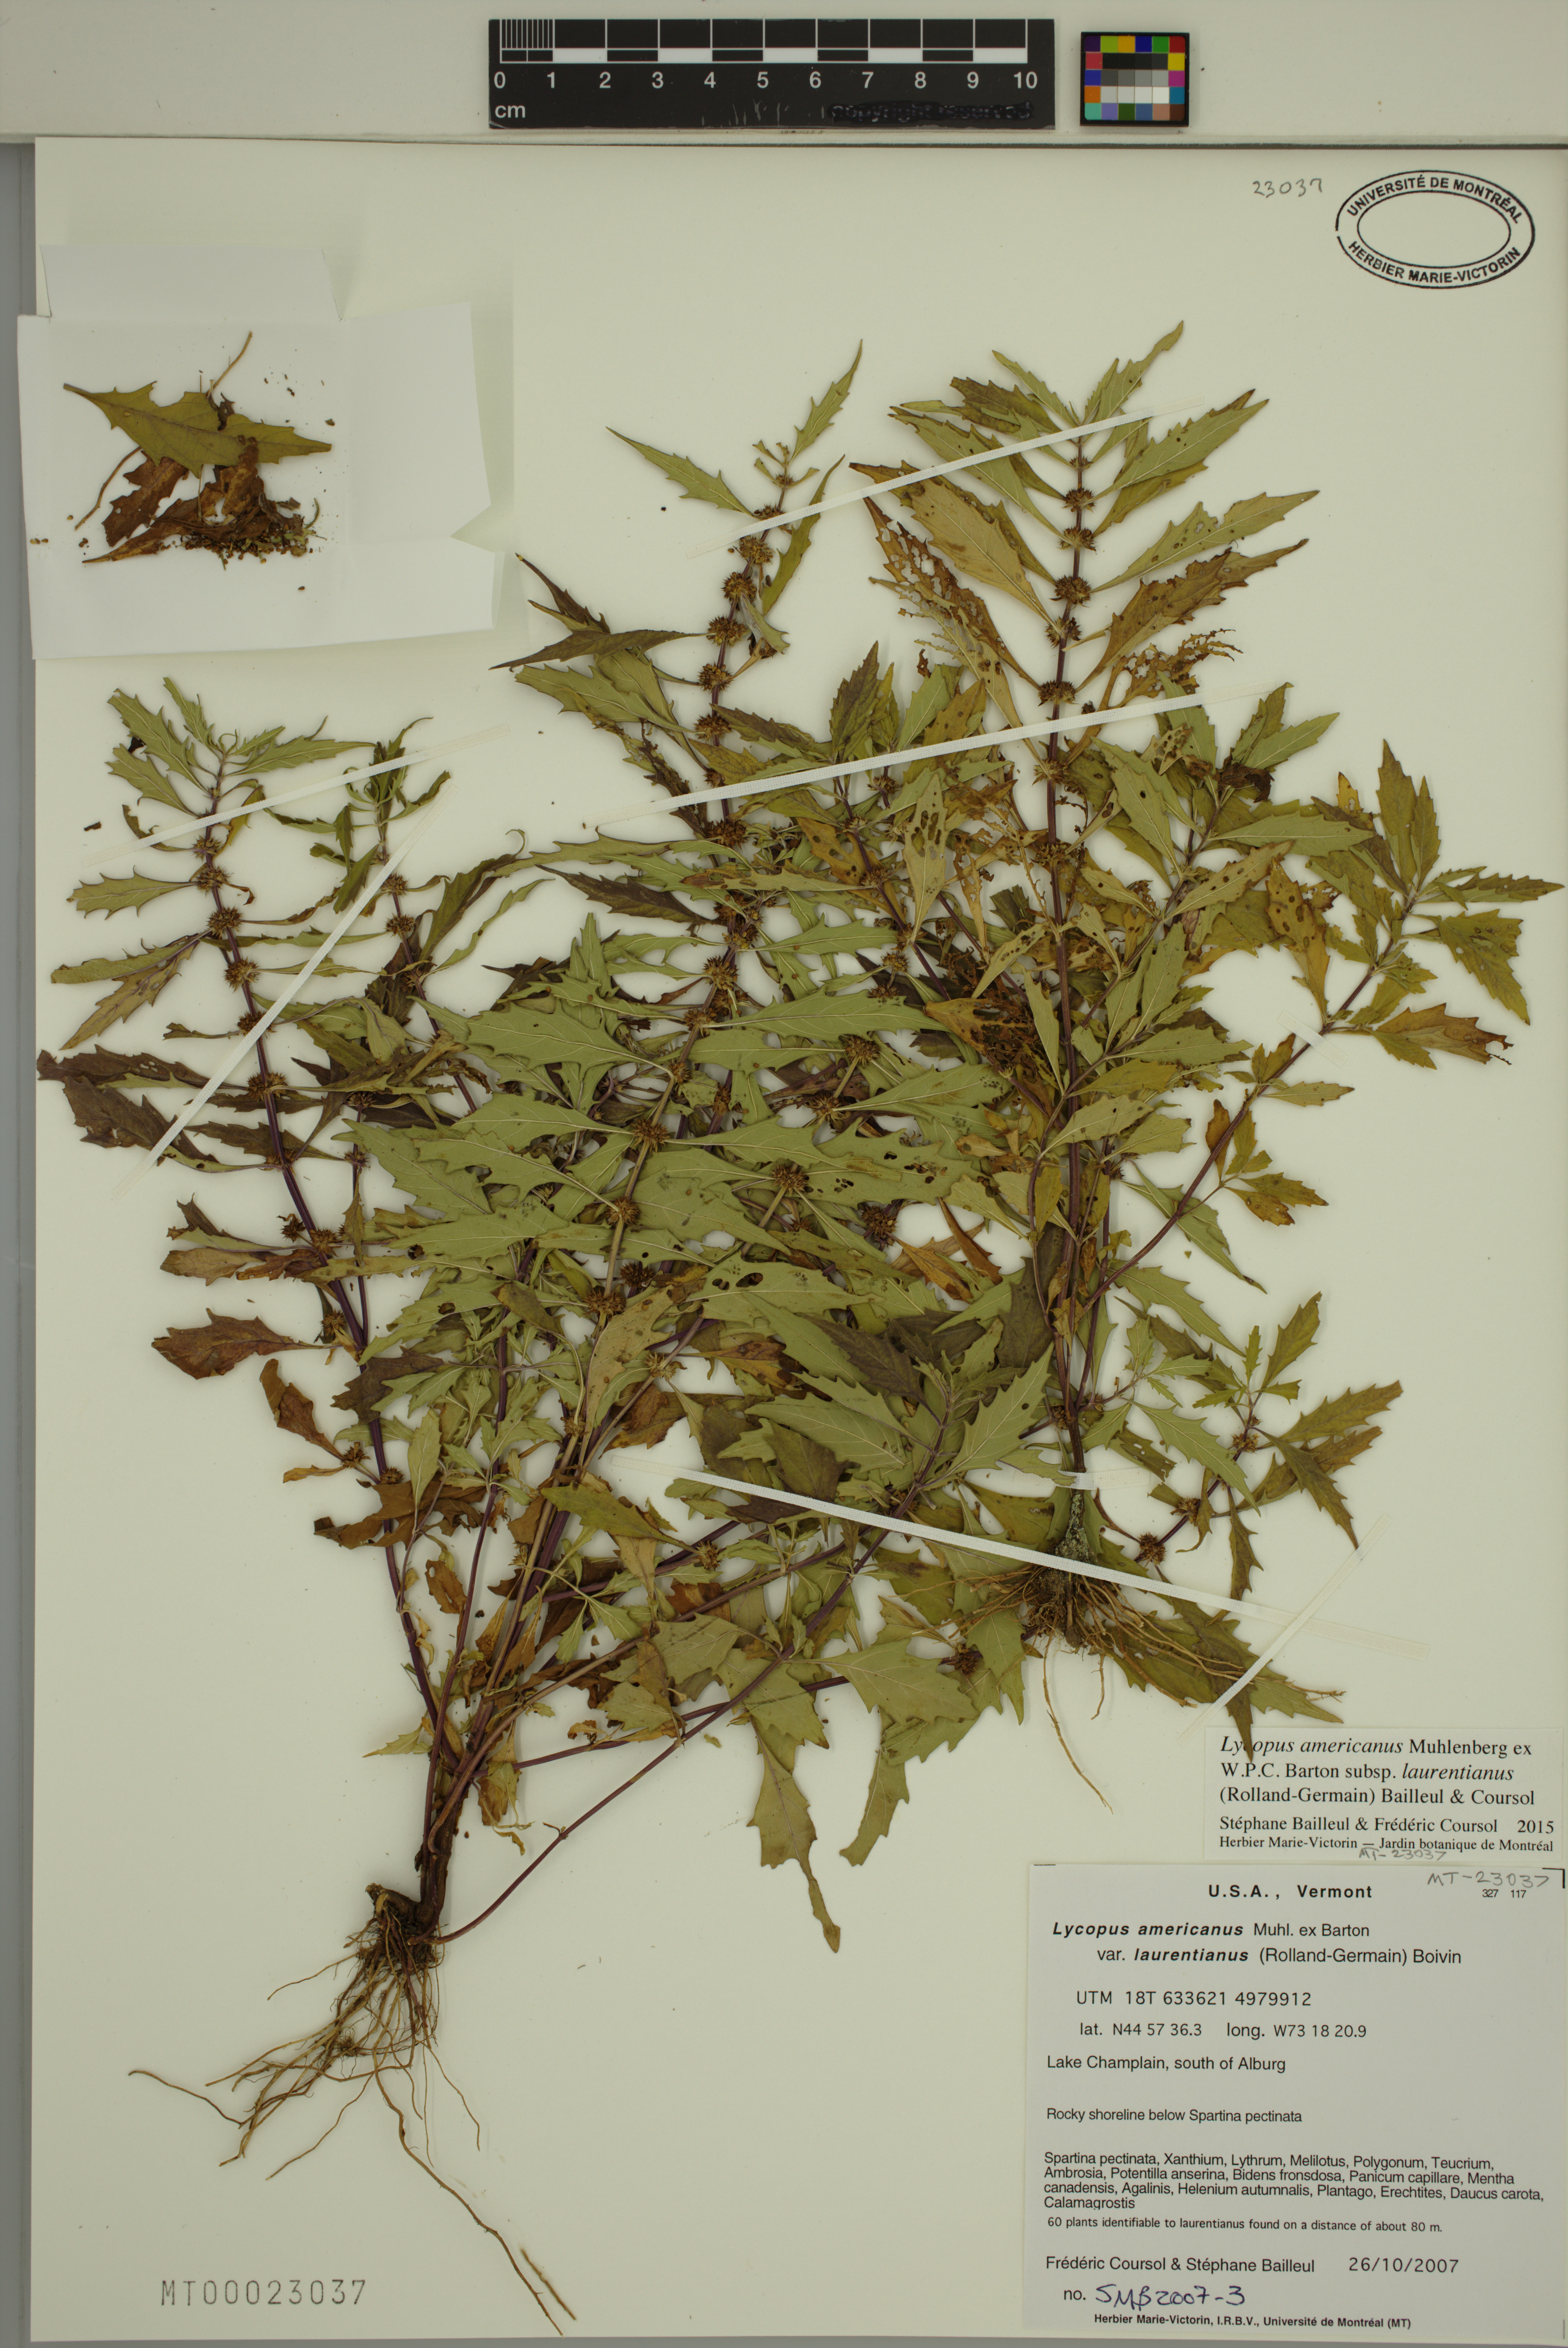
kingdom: Plantae
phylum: Tracheophyta
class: Magnoliopsida
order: Lamiales
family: Lamiaceae
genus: Lycopus
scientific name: Lycopus americanus
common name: American bugleweed
